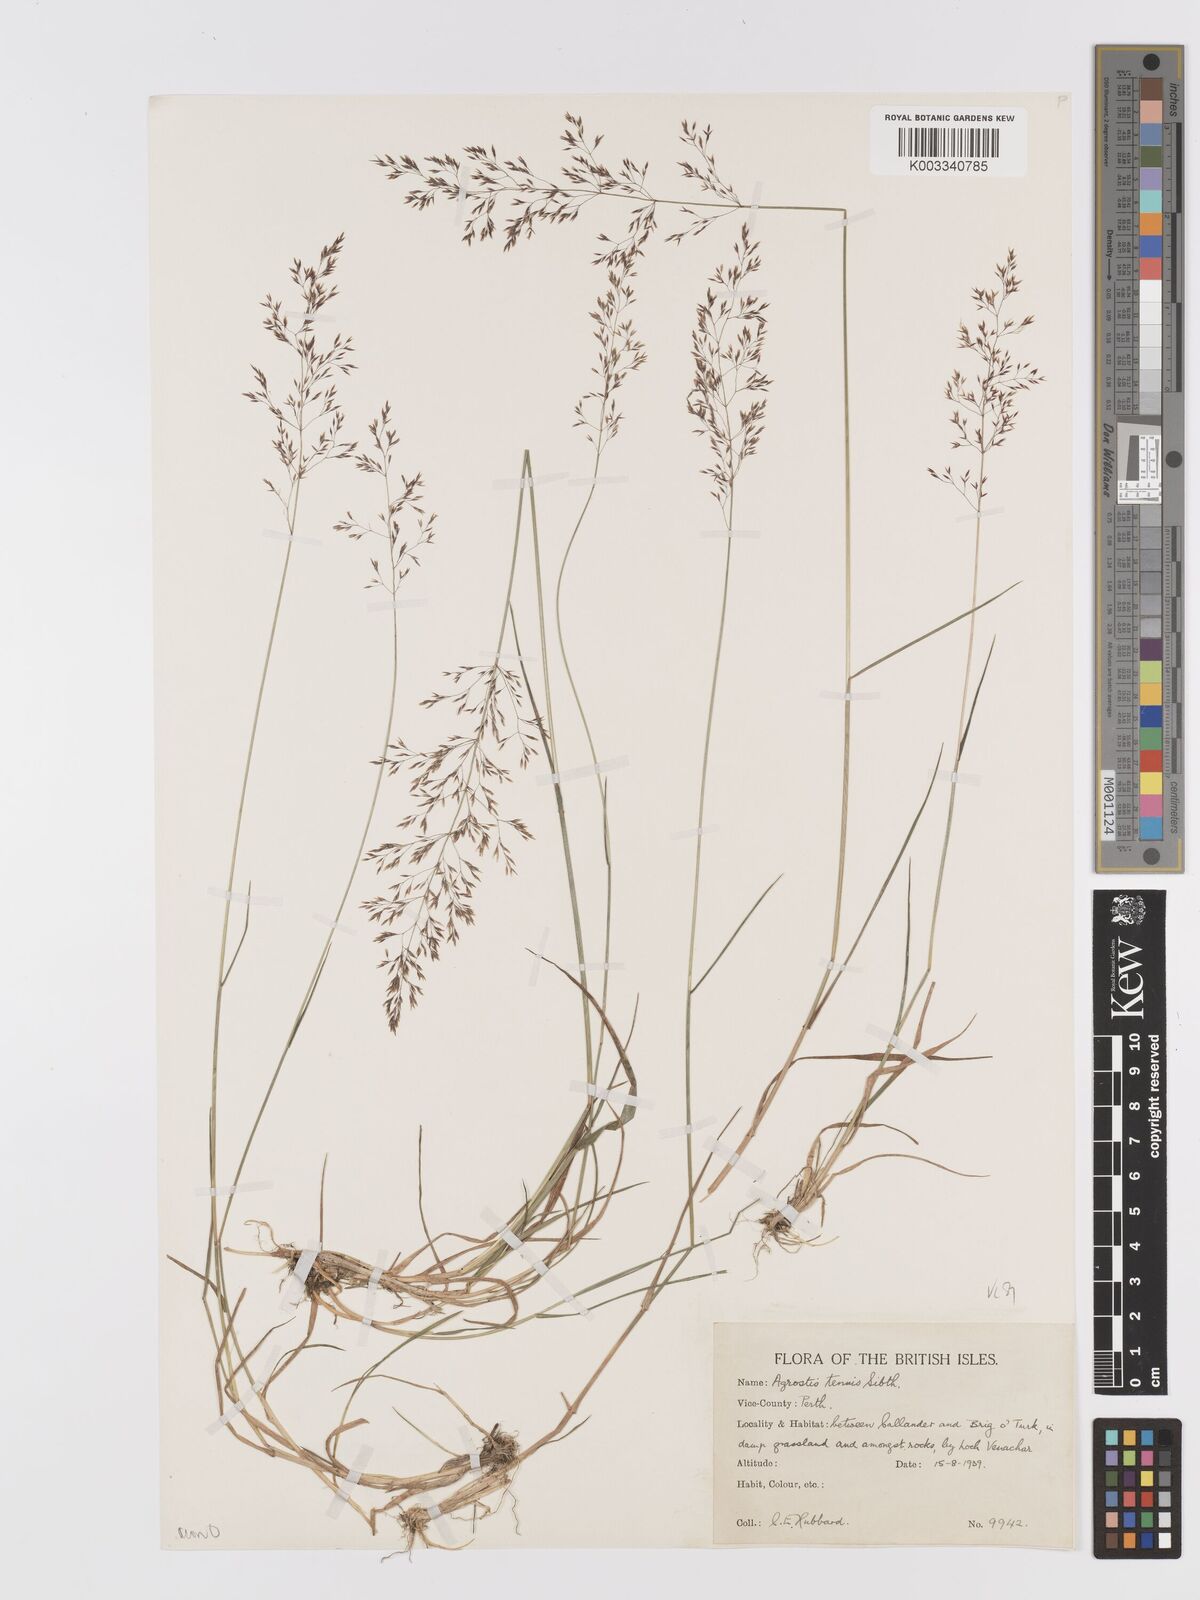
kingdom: Plantae
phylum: Tracheophyta
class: Liliopsida
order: Poales
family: Poaceae
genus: Agrostis
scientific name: Agrostis capillaris
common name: Colonial bentgrass
